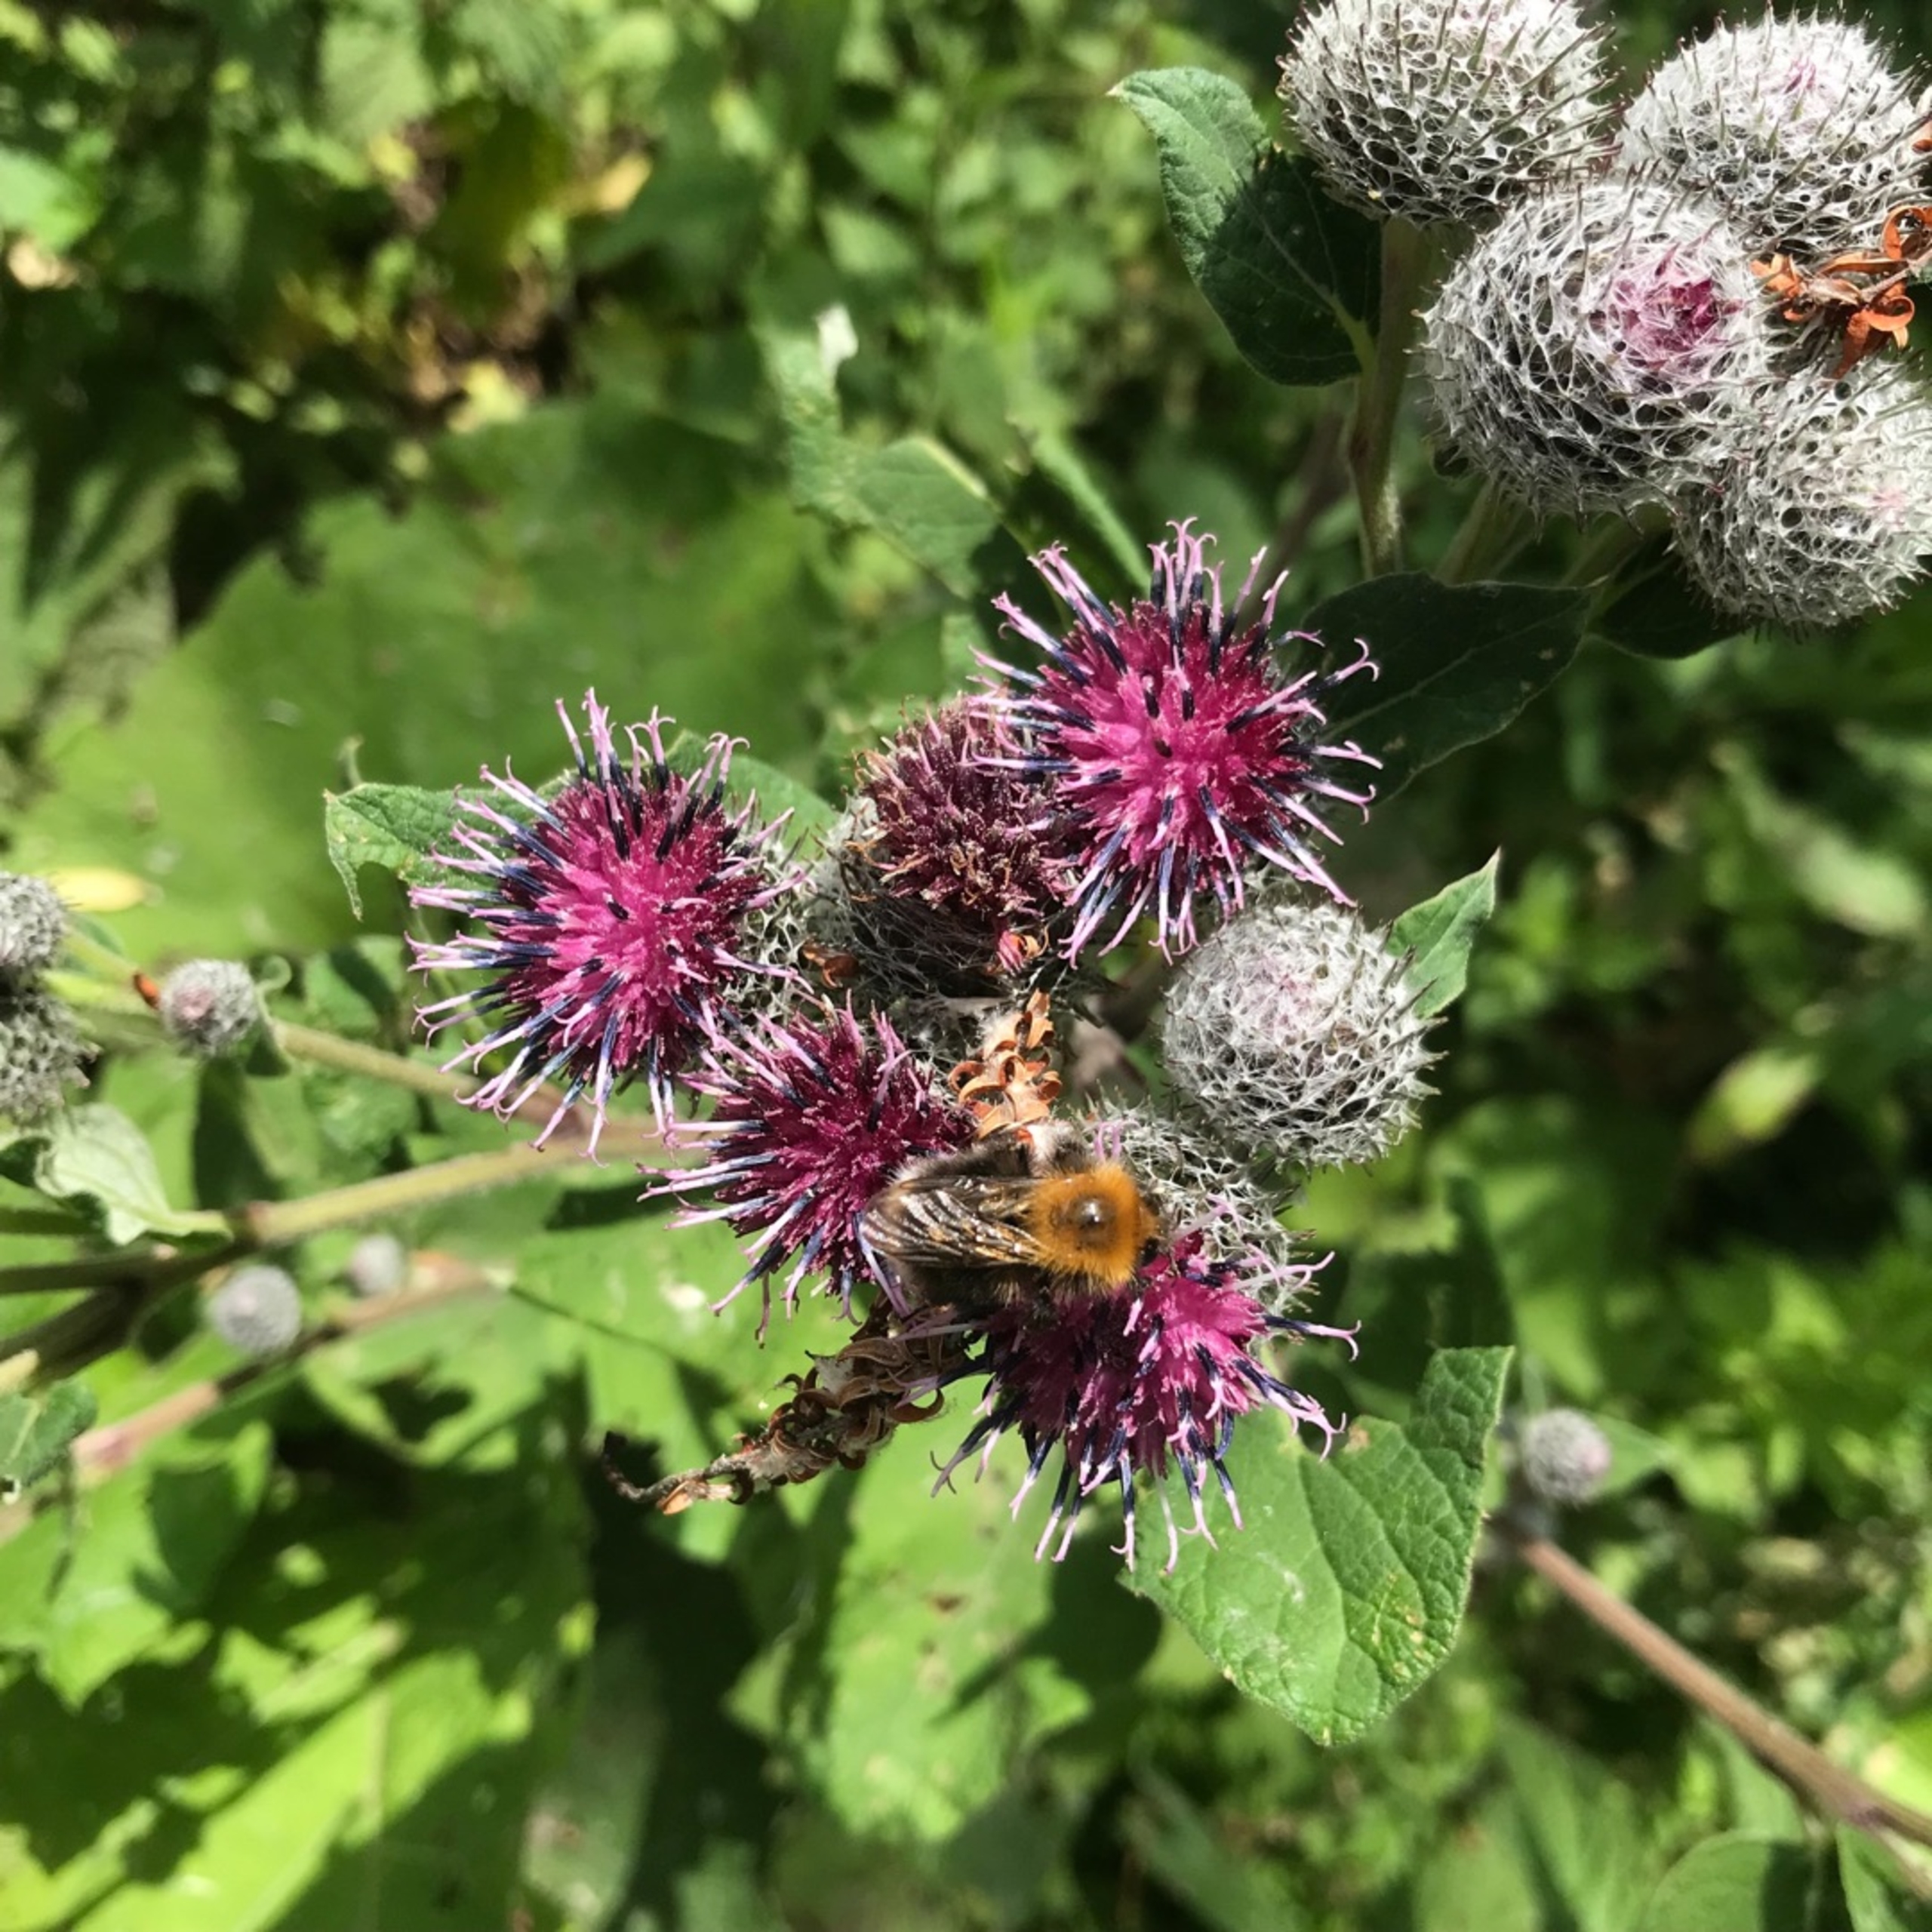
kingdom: Animalia
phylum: Arthropoda
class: Insecta
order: Hymenoptera
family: Apidae
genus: Bombus
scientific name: Bombus hypnorum
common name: Hushumle
